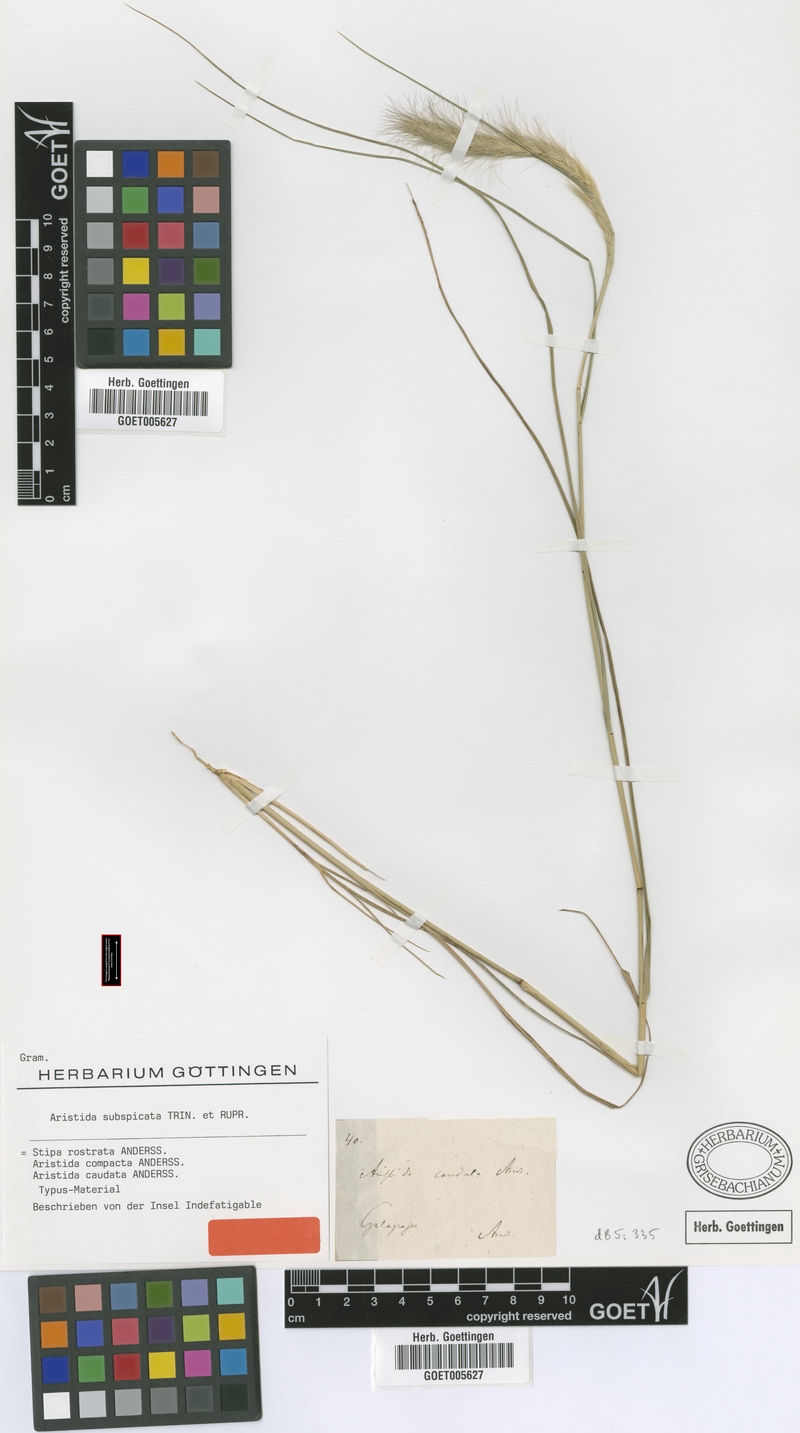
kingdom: Plantae
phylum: Tracheophyta
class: Liliopsida
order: Poales
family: Poaceae
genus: Aristida
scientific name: Aristida subspicata
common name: Galapagos three-awn grass
